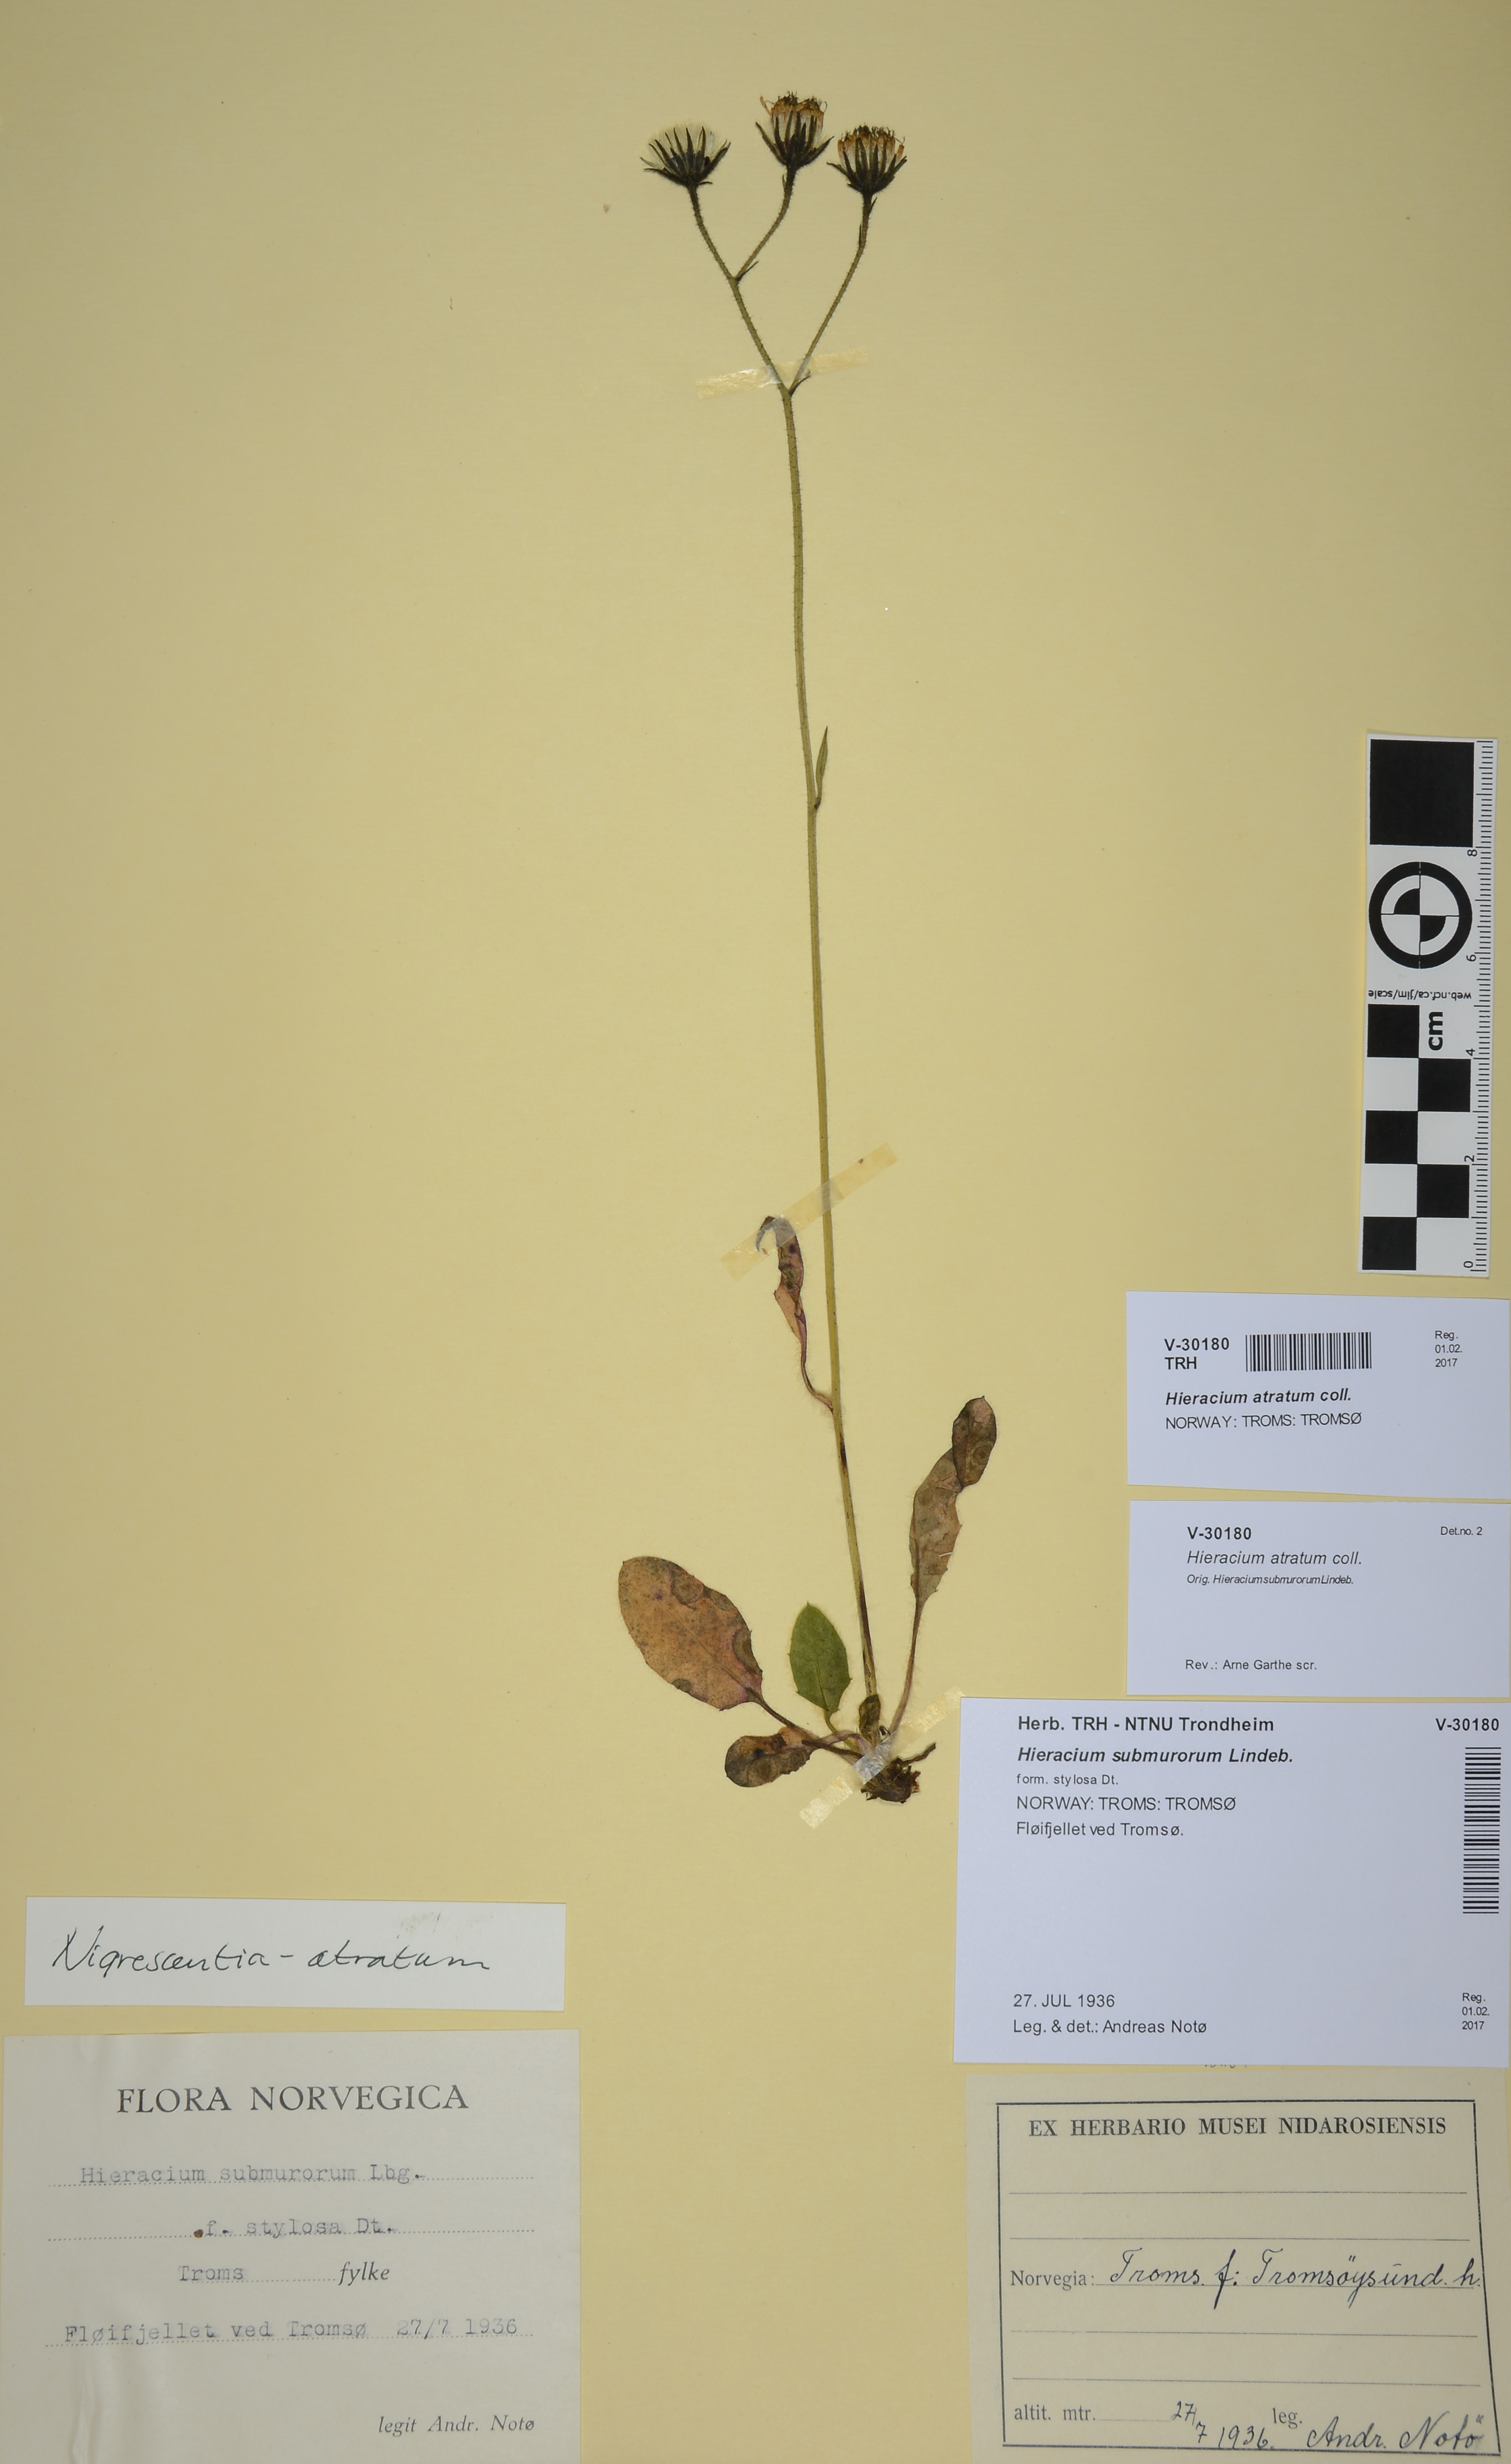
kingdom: Plantae
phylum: Tracheophyta
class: Magnoliopsida
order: Asterales
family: Asteraceae
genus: Hieracium
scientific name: Hieracium atratum
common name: Polar hawkweed
